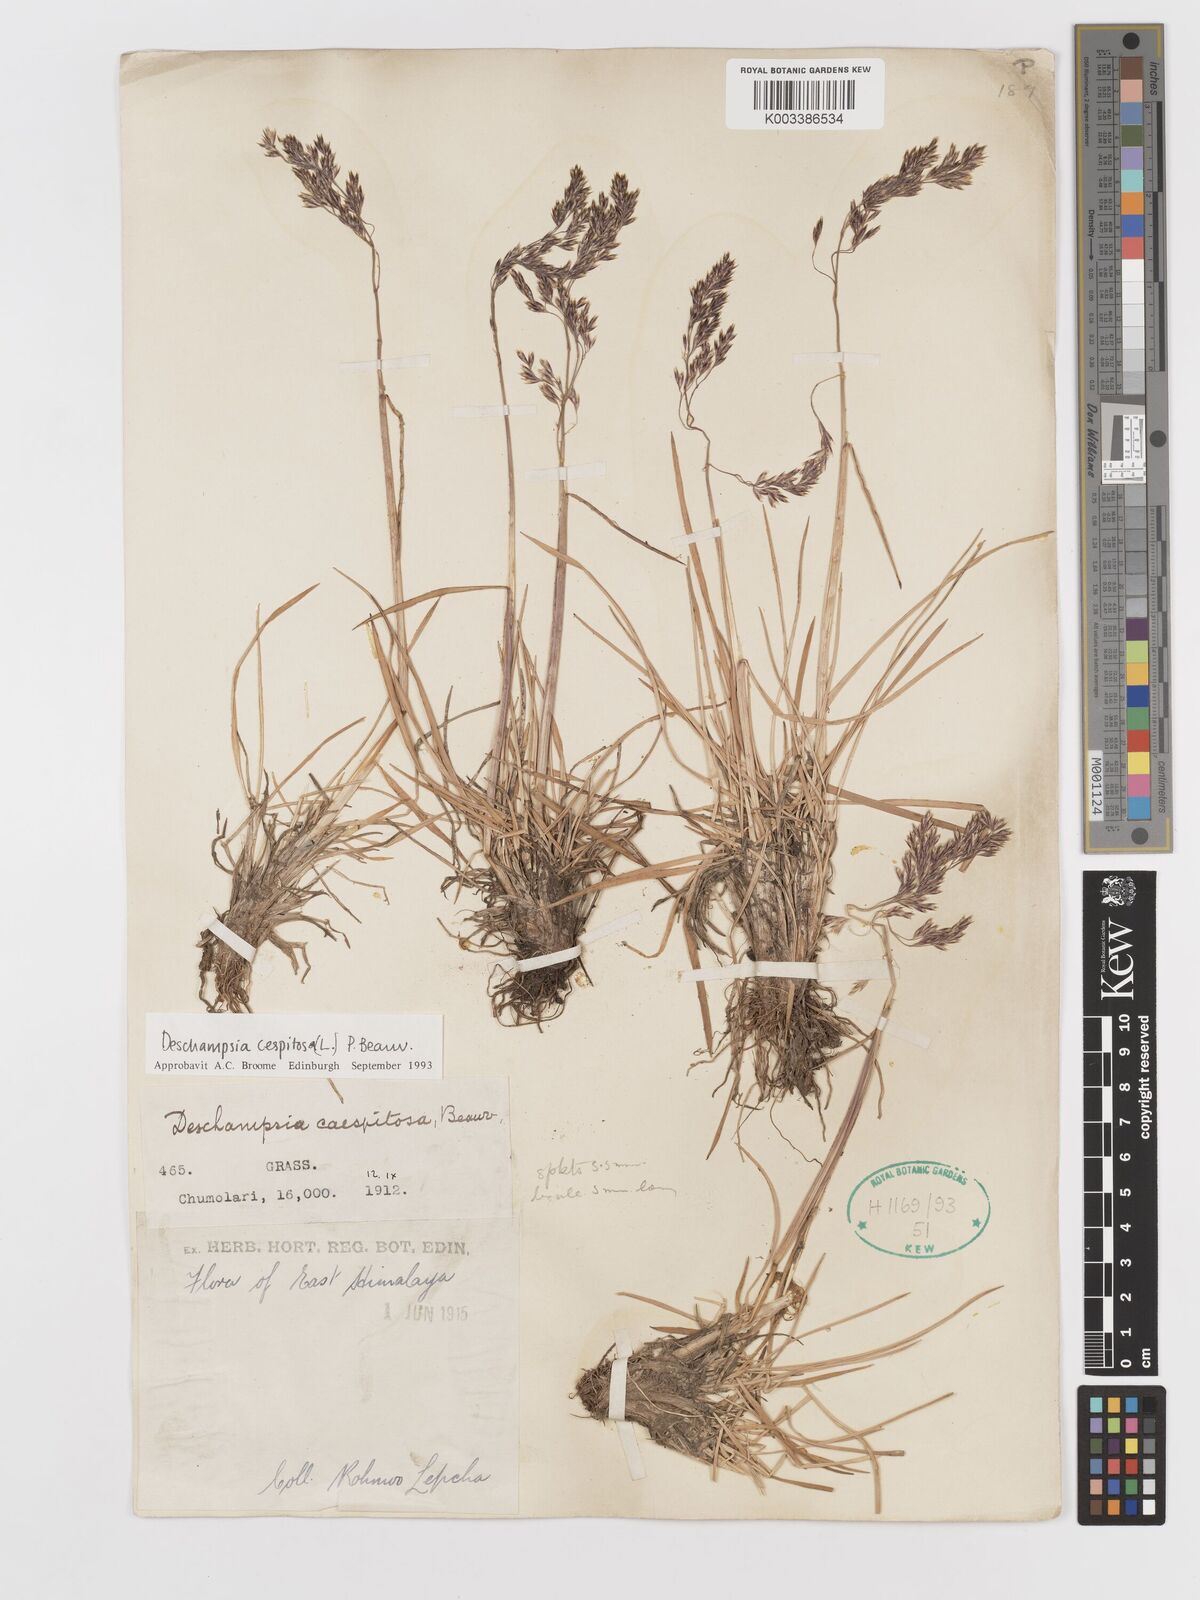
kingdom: Plantae
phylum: Tracheophyta
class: Liliopsida
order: Poales
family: Poaceae
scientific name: Poaceae
